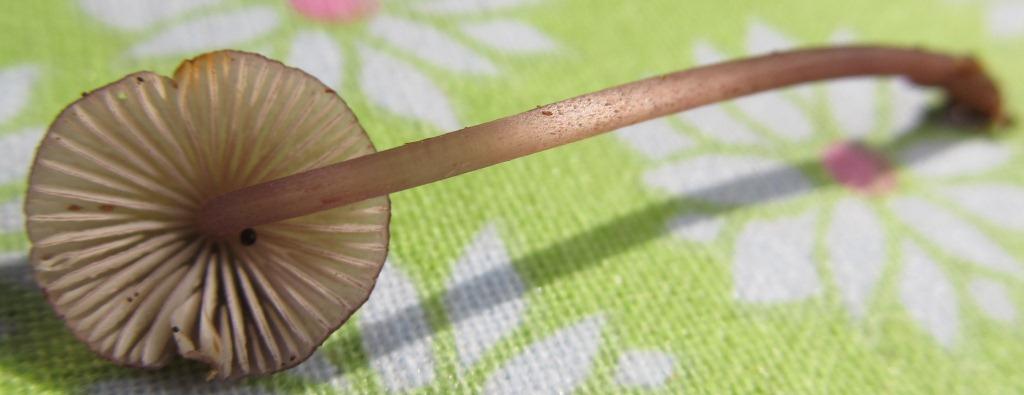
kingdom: Fungi
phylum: Basidiomycota
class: Agaricomycetes
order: Agaricales
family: Mycenaceae
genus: Mycena
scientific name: Mycena purpureofusca
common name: purpur-huesvamp
